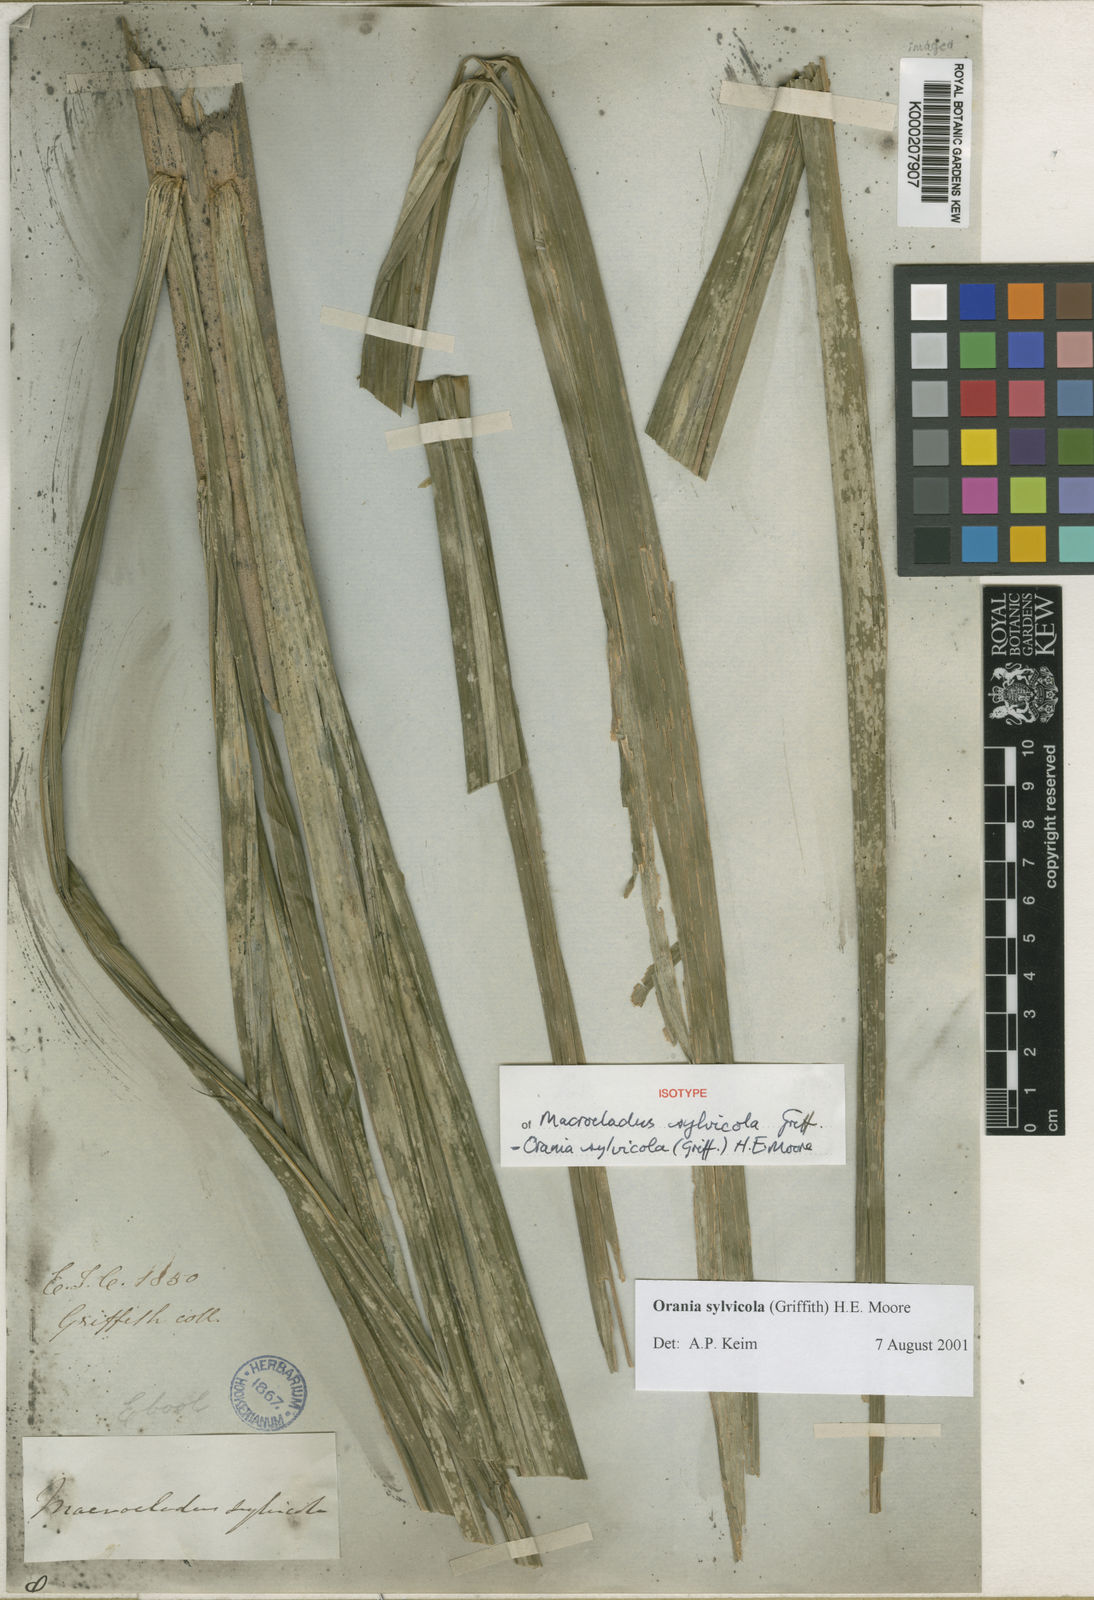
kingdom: Plantae
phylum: Tracheophyta
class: Liliopsida
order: Arecales
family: Arecaceae
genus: Orania
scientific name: Orania sylvicola
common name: Forest palm
